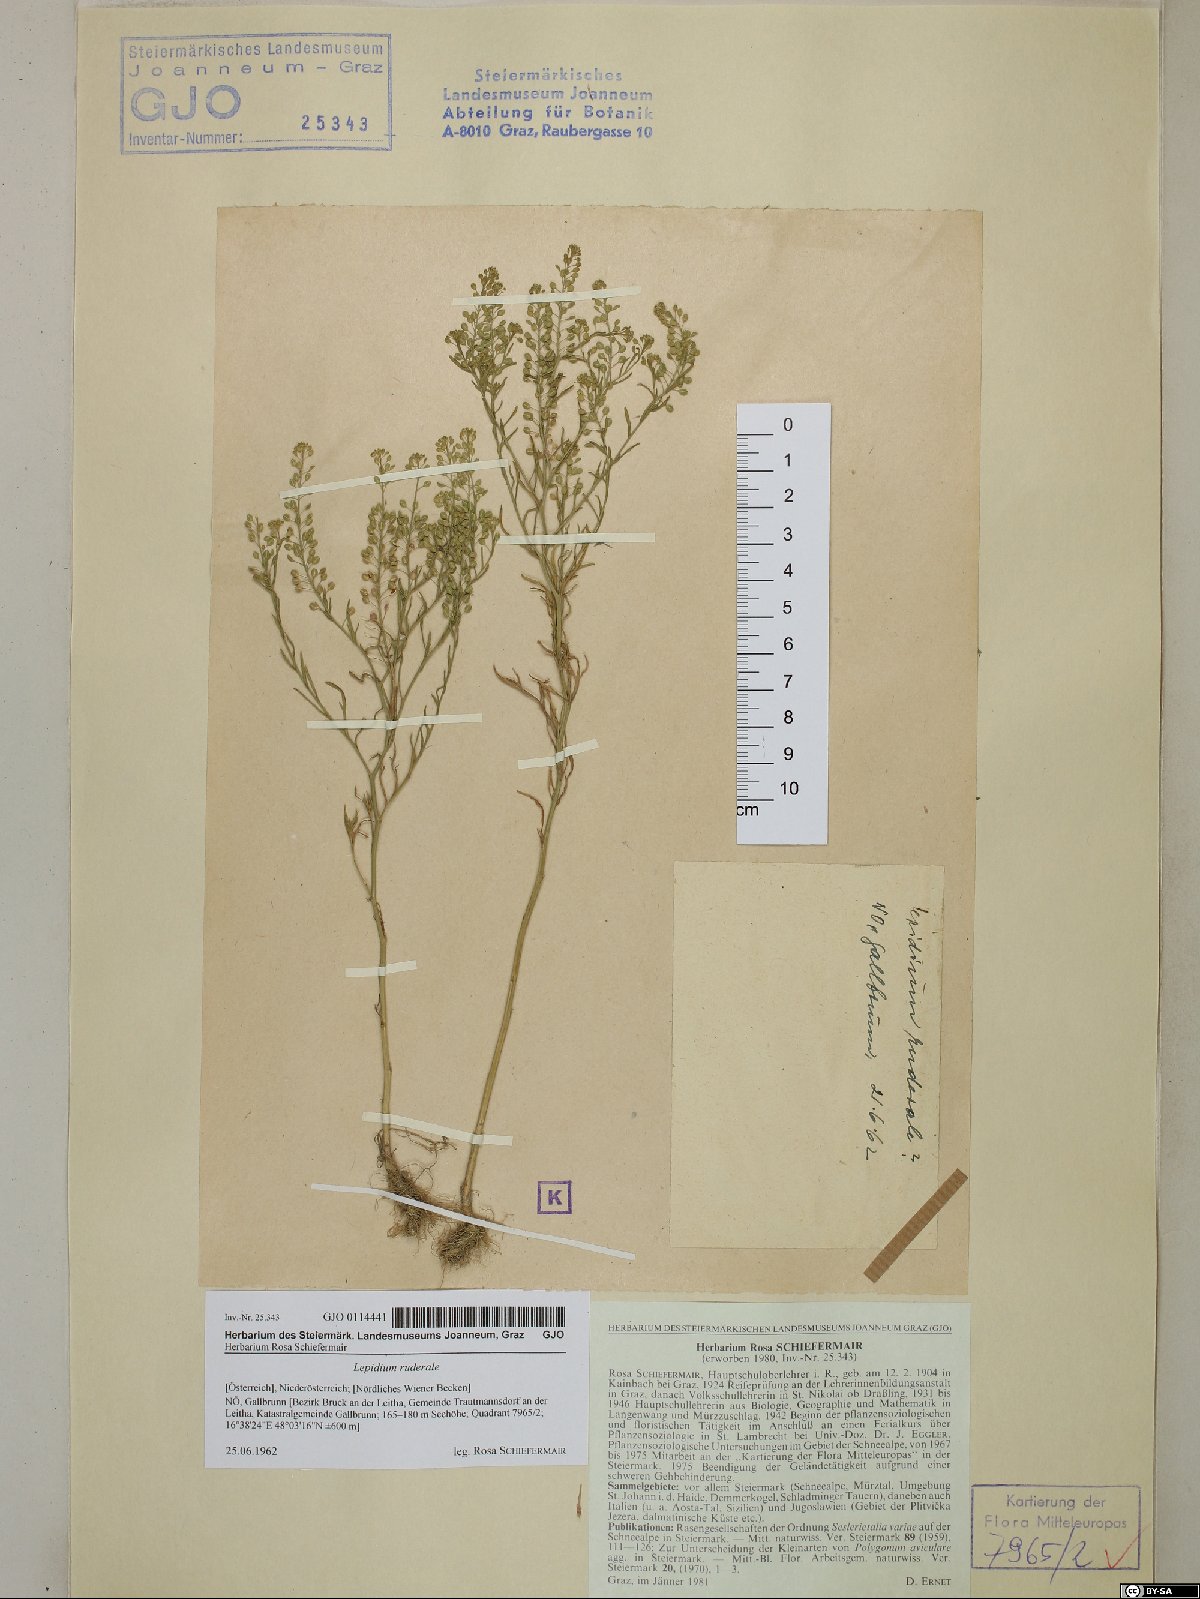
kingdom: Plantae
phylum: Tracheophyta
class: Magnoliopsida
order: Brassicales
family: Brassicaceae
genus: Lepidium
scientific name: Lepidium ruderale
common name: Narrow-leaved pepperwort
